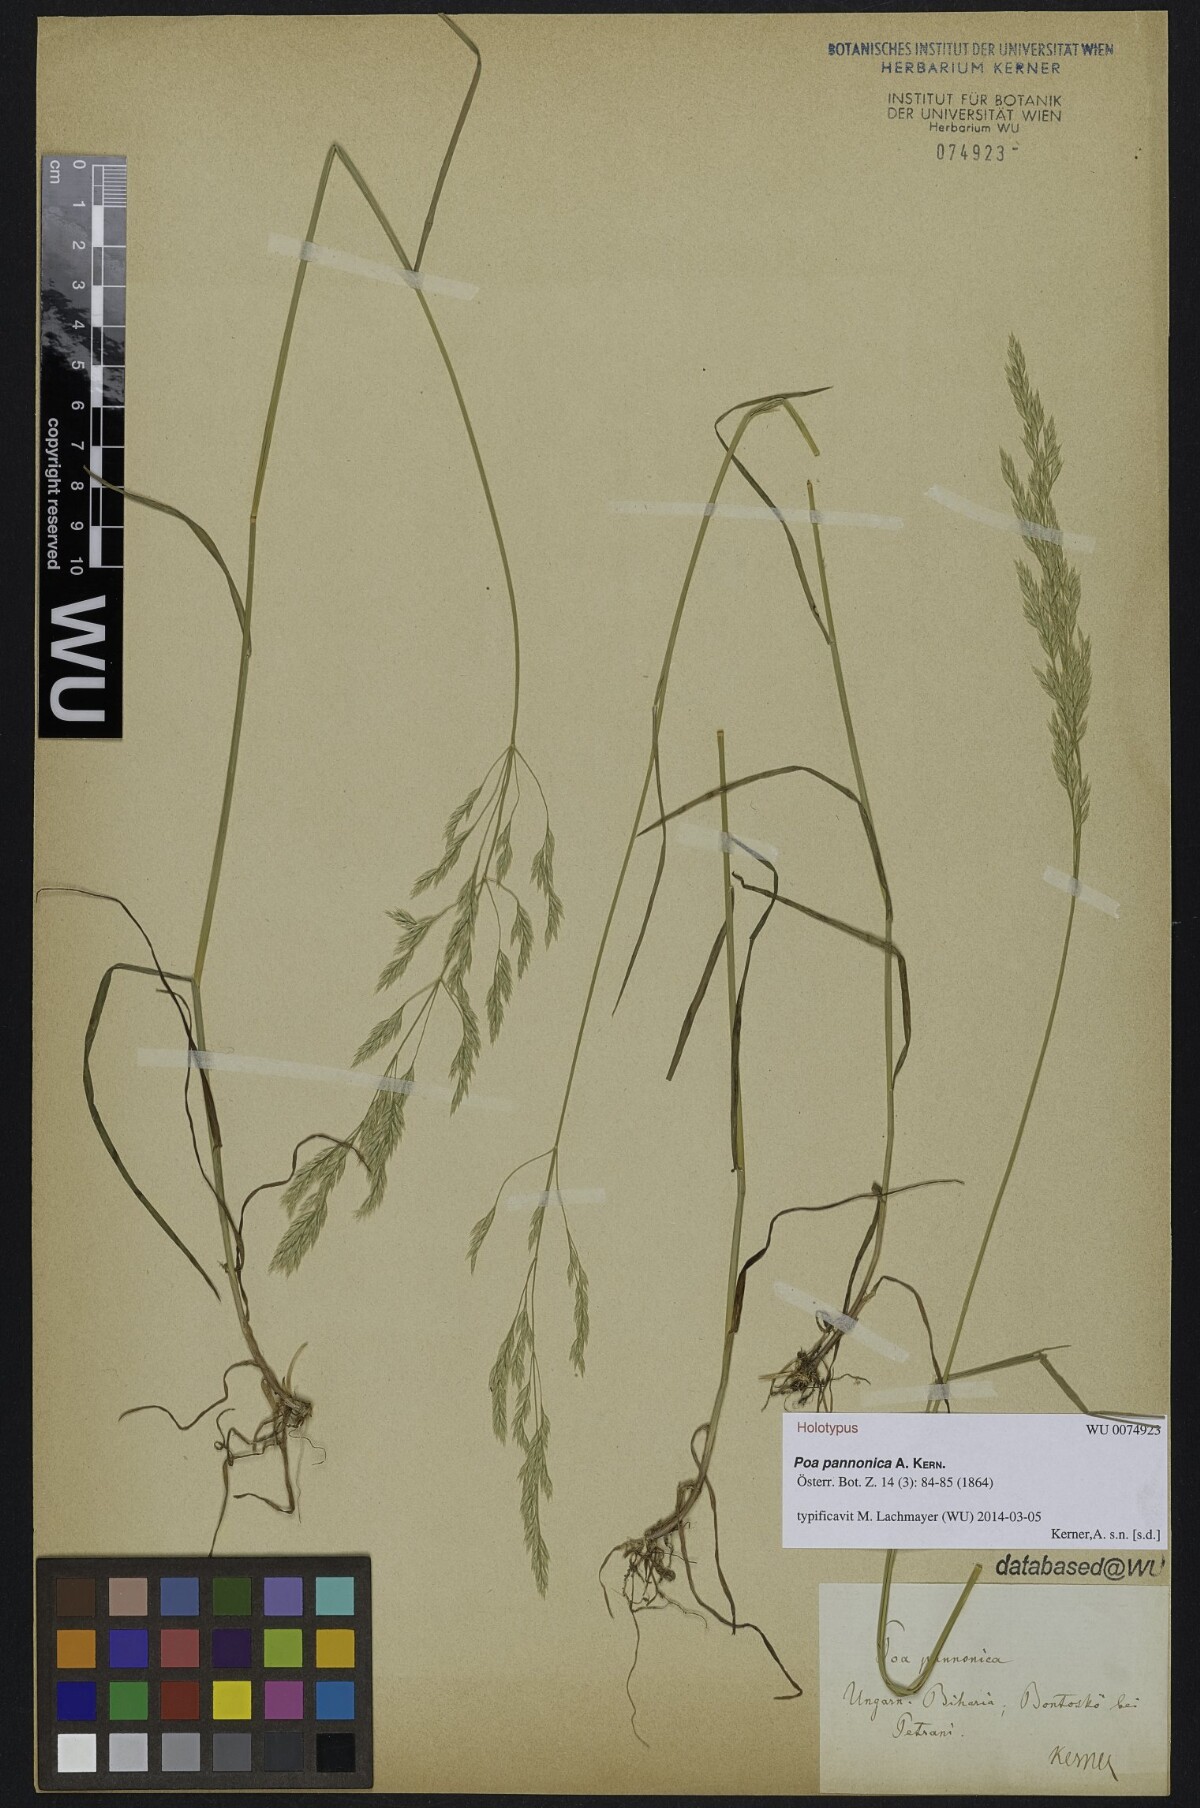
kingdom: Plantae
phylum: Tracheophyta
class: Liliopsida
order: Poales
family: Poaceae
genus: Poa
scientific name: Poa pannonica
